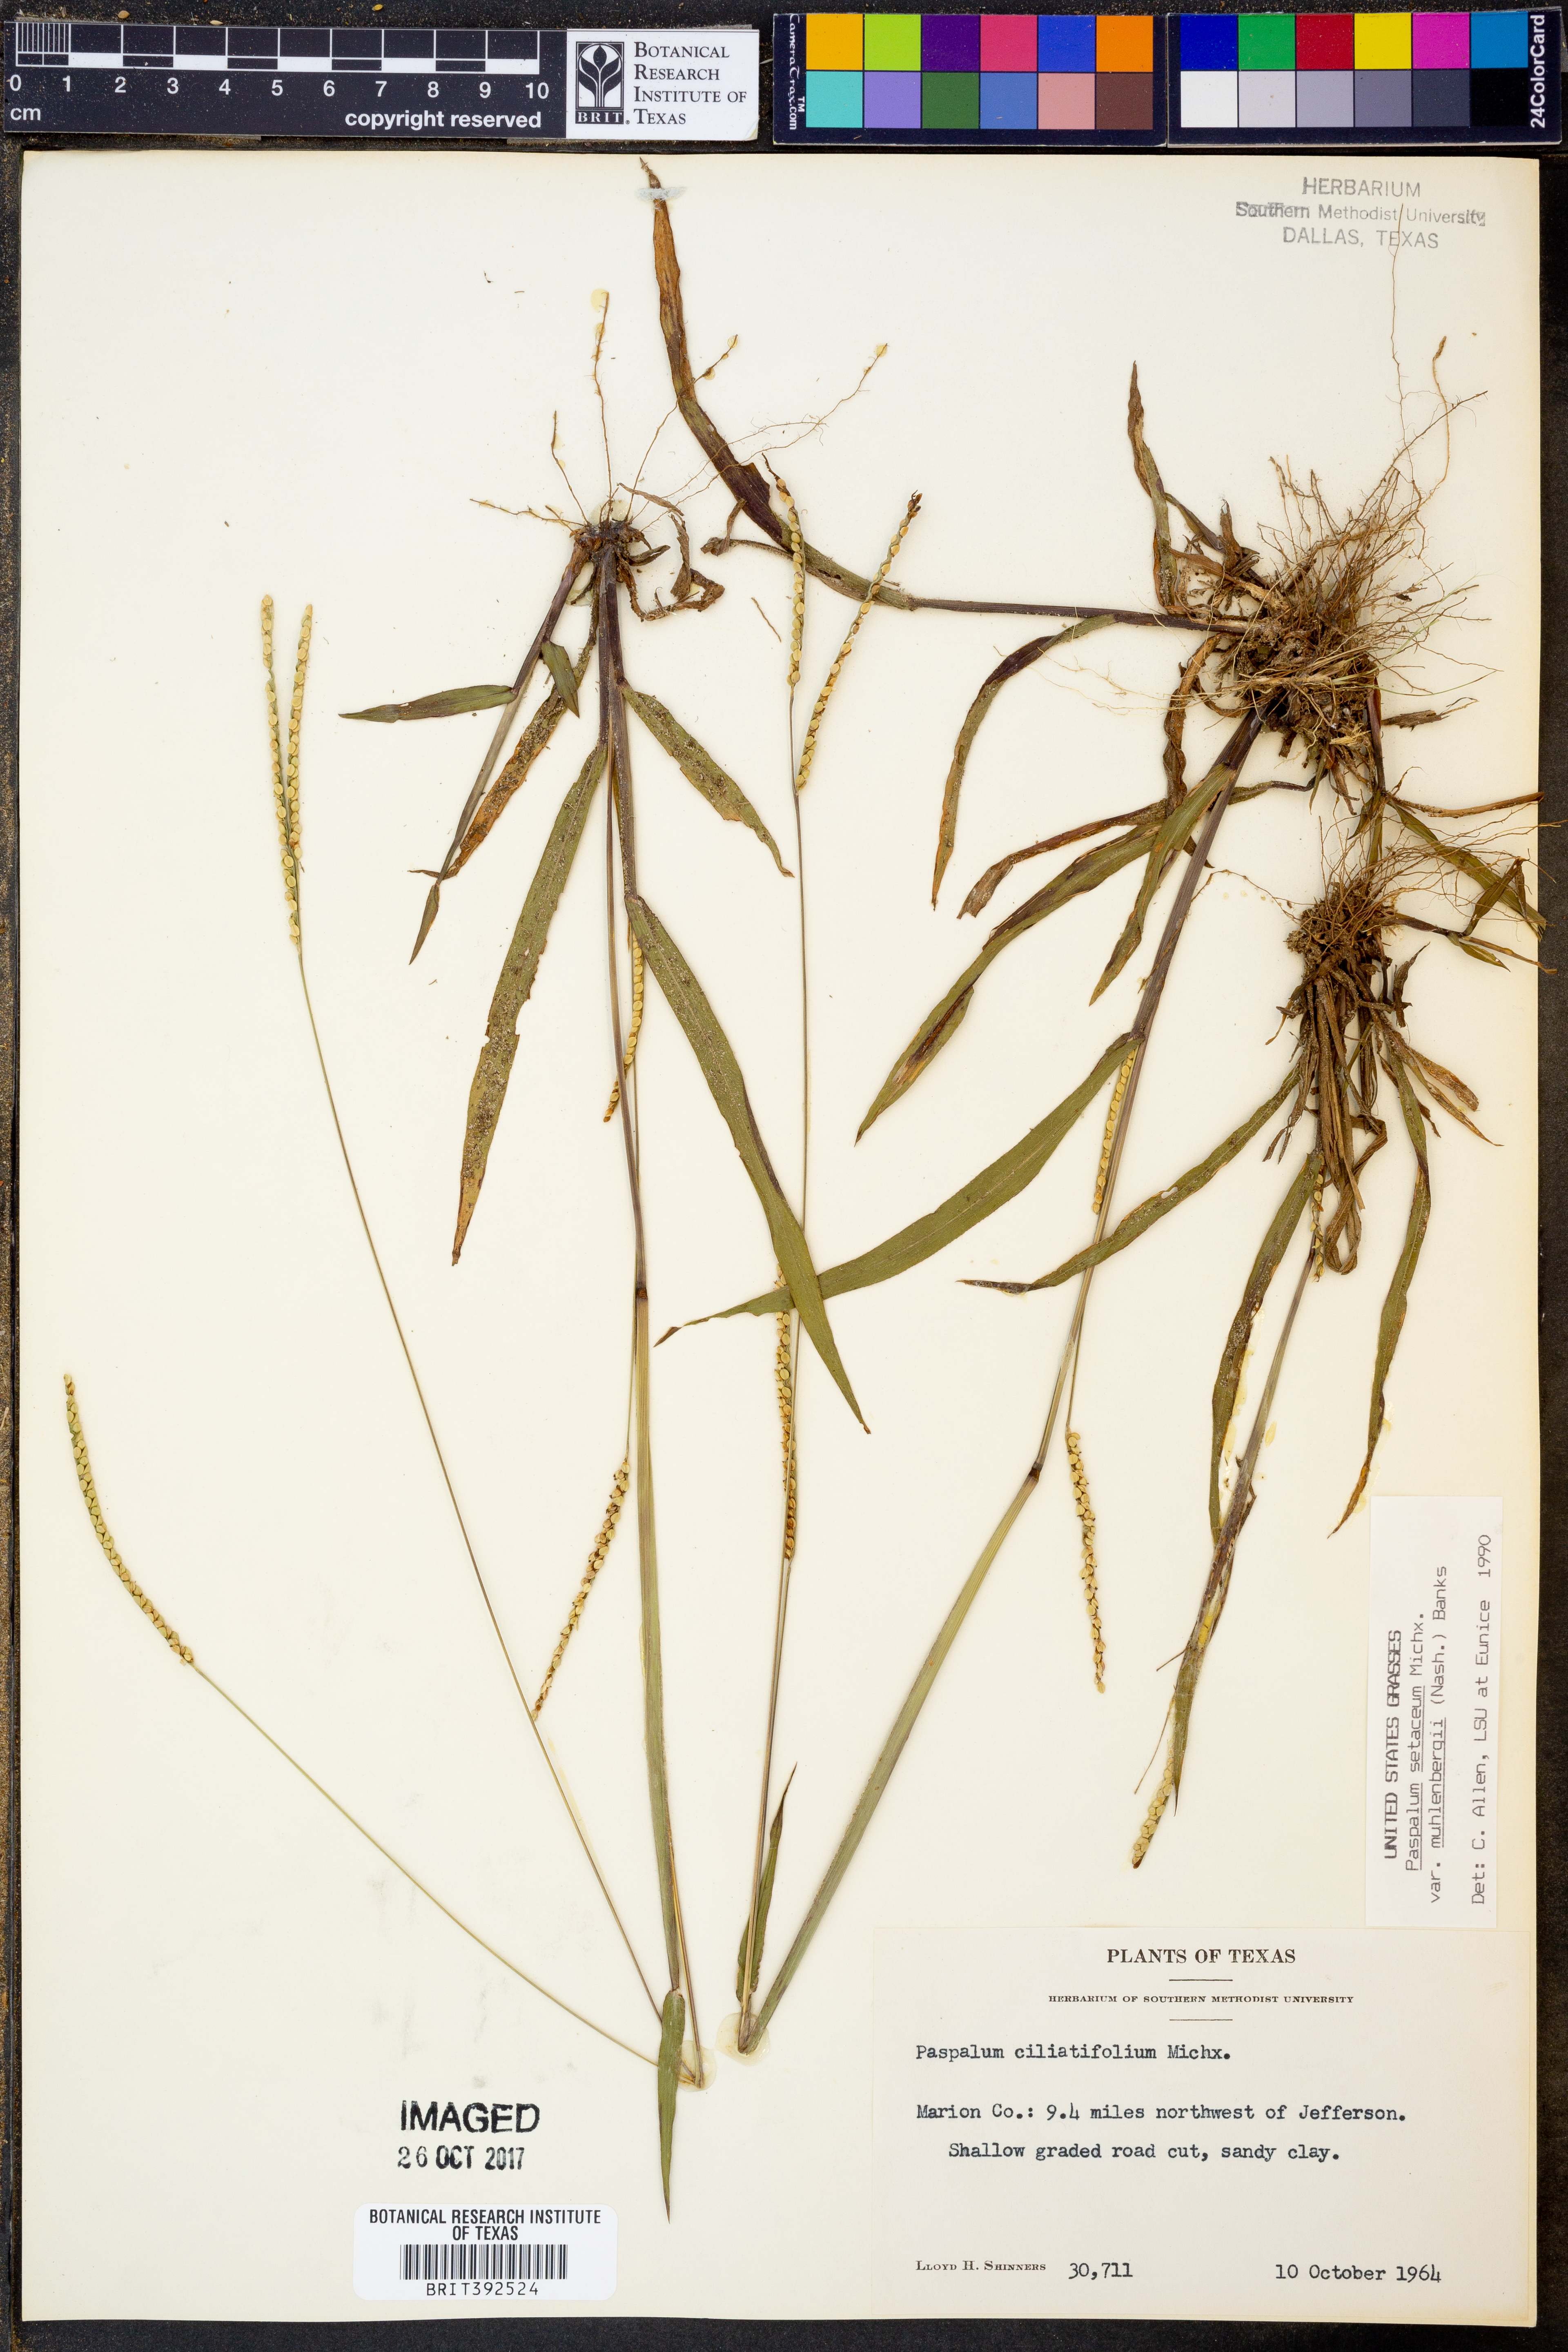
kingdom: Plantae
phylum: Tracheophyta
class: Liliopsida
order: Poales
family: Poaceae
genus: Paspalum
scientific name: Paspalum setaceum
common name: Slender paspalum
